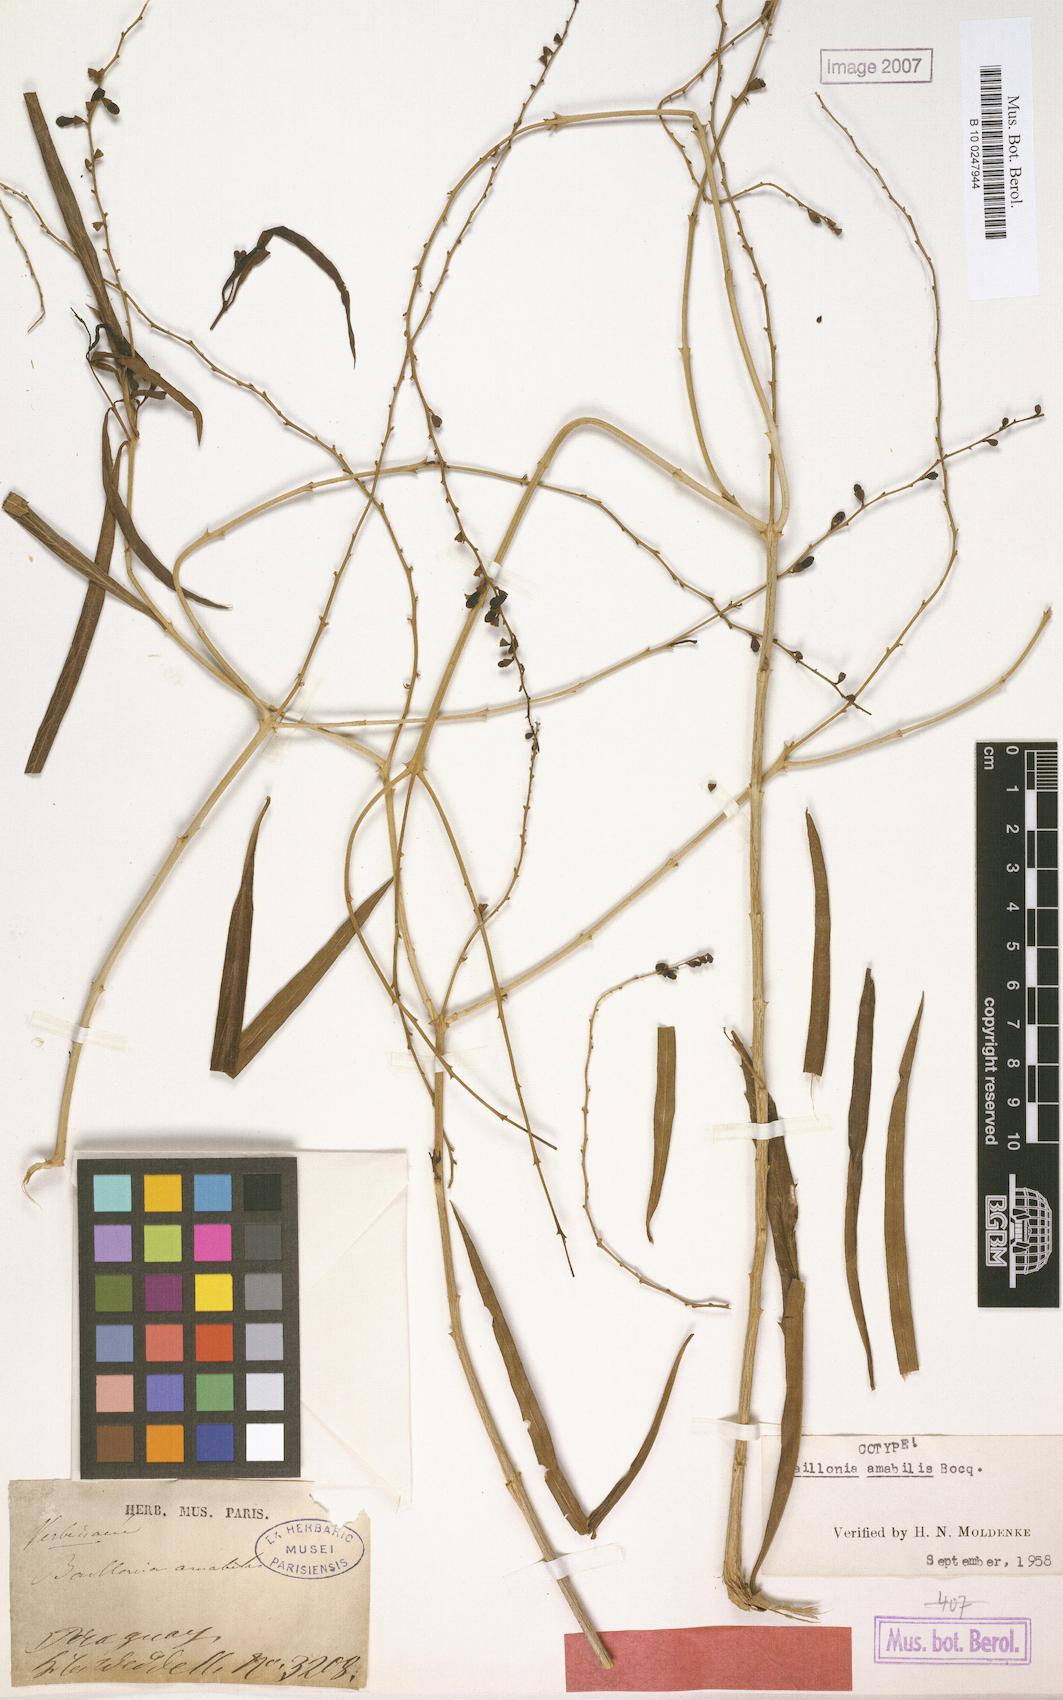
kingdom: Plantae
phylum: Tracheophyta
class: Magnoliopsida
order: Lamiales
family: Verbenaceae
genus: Citharexylum
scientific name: Citharexylum Baillonia amabilis
